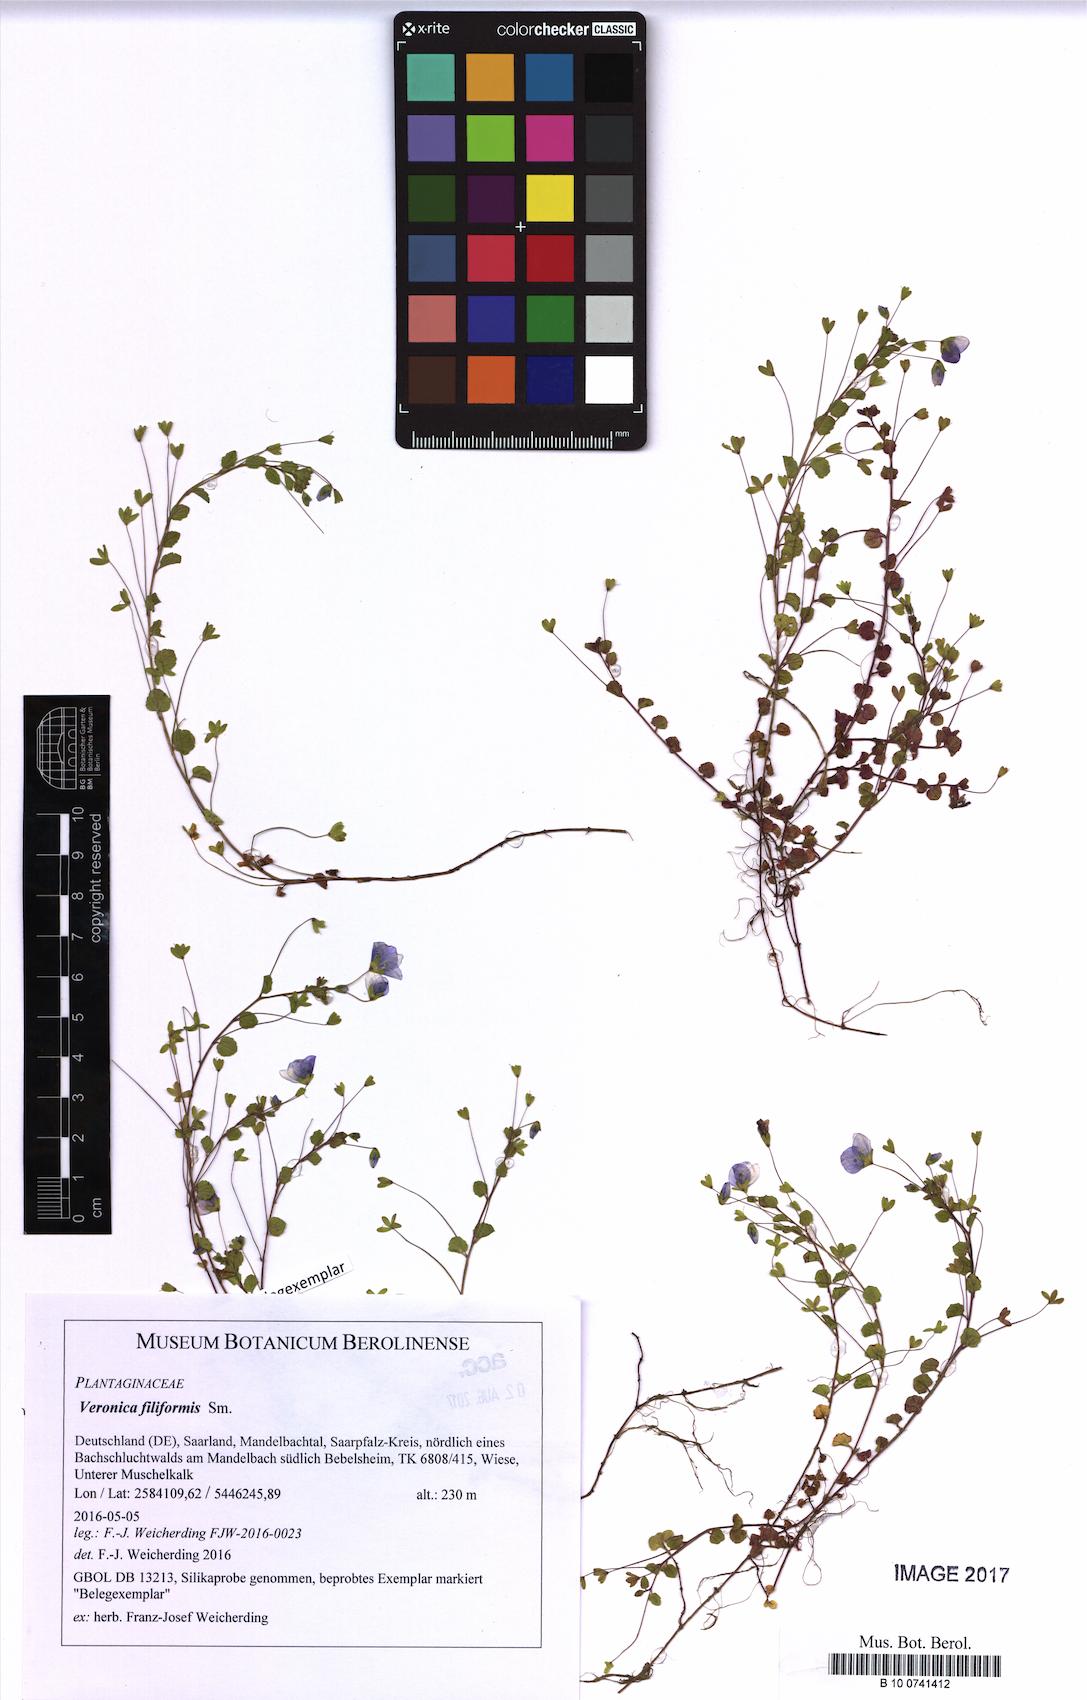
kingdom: Plantae
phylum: Tracheophyta
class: Magnoliopsida
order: Lamiales
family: Plantaginaceae
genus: Veronica
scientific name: Veronica filiformis
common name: Slender speedwell
